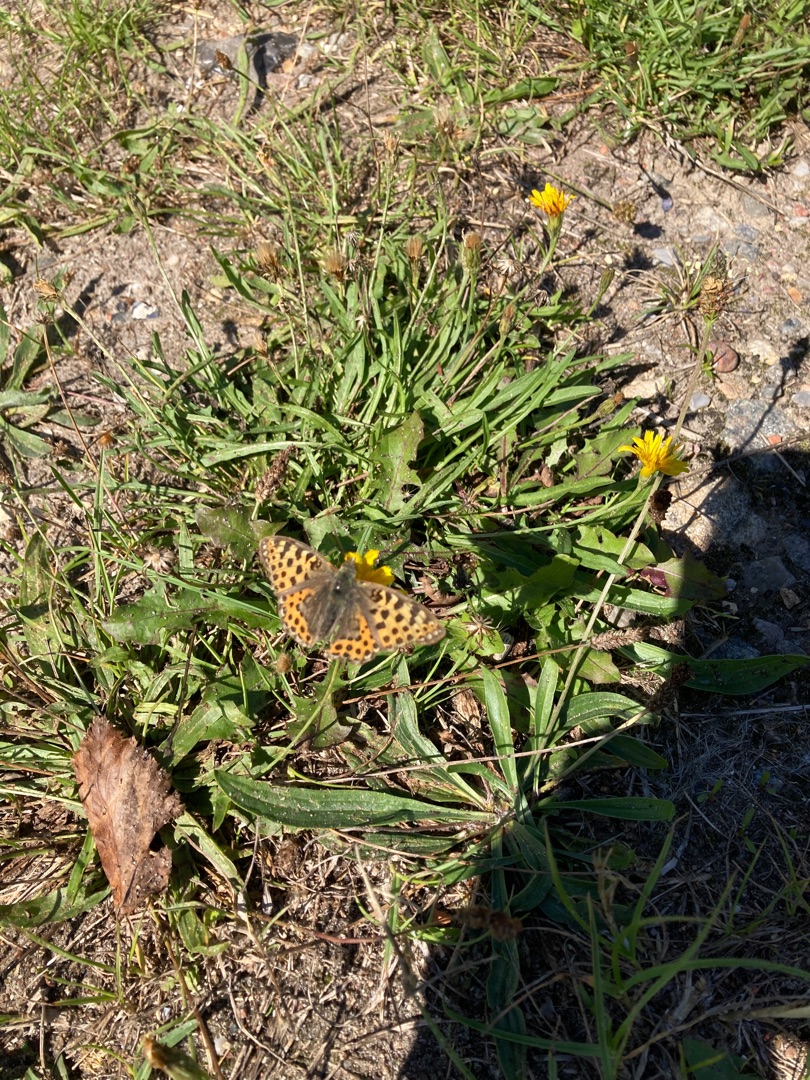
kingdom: Animalia
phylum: Arthropoda
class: Insecta
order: Lepidoptera
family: Nymphalidae
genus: Issoria
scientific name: Issoria lathonia
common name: Storplettet perlemorsommerfugl
